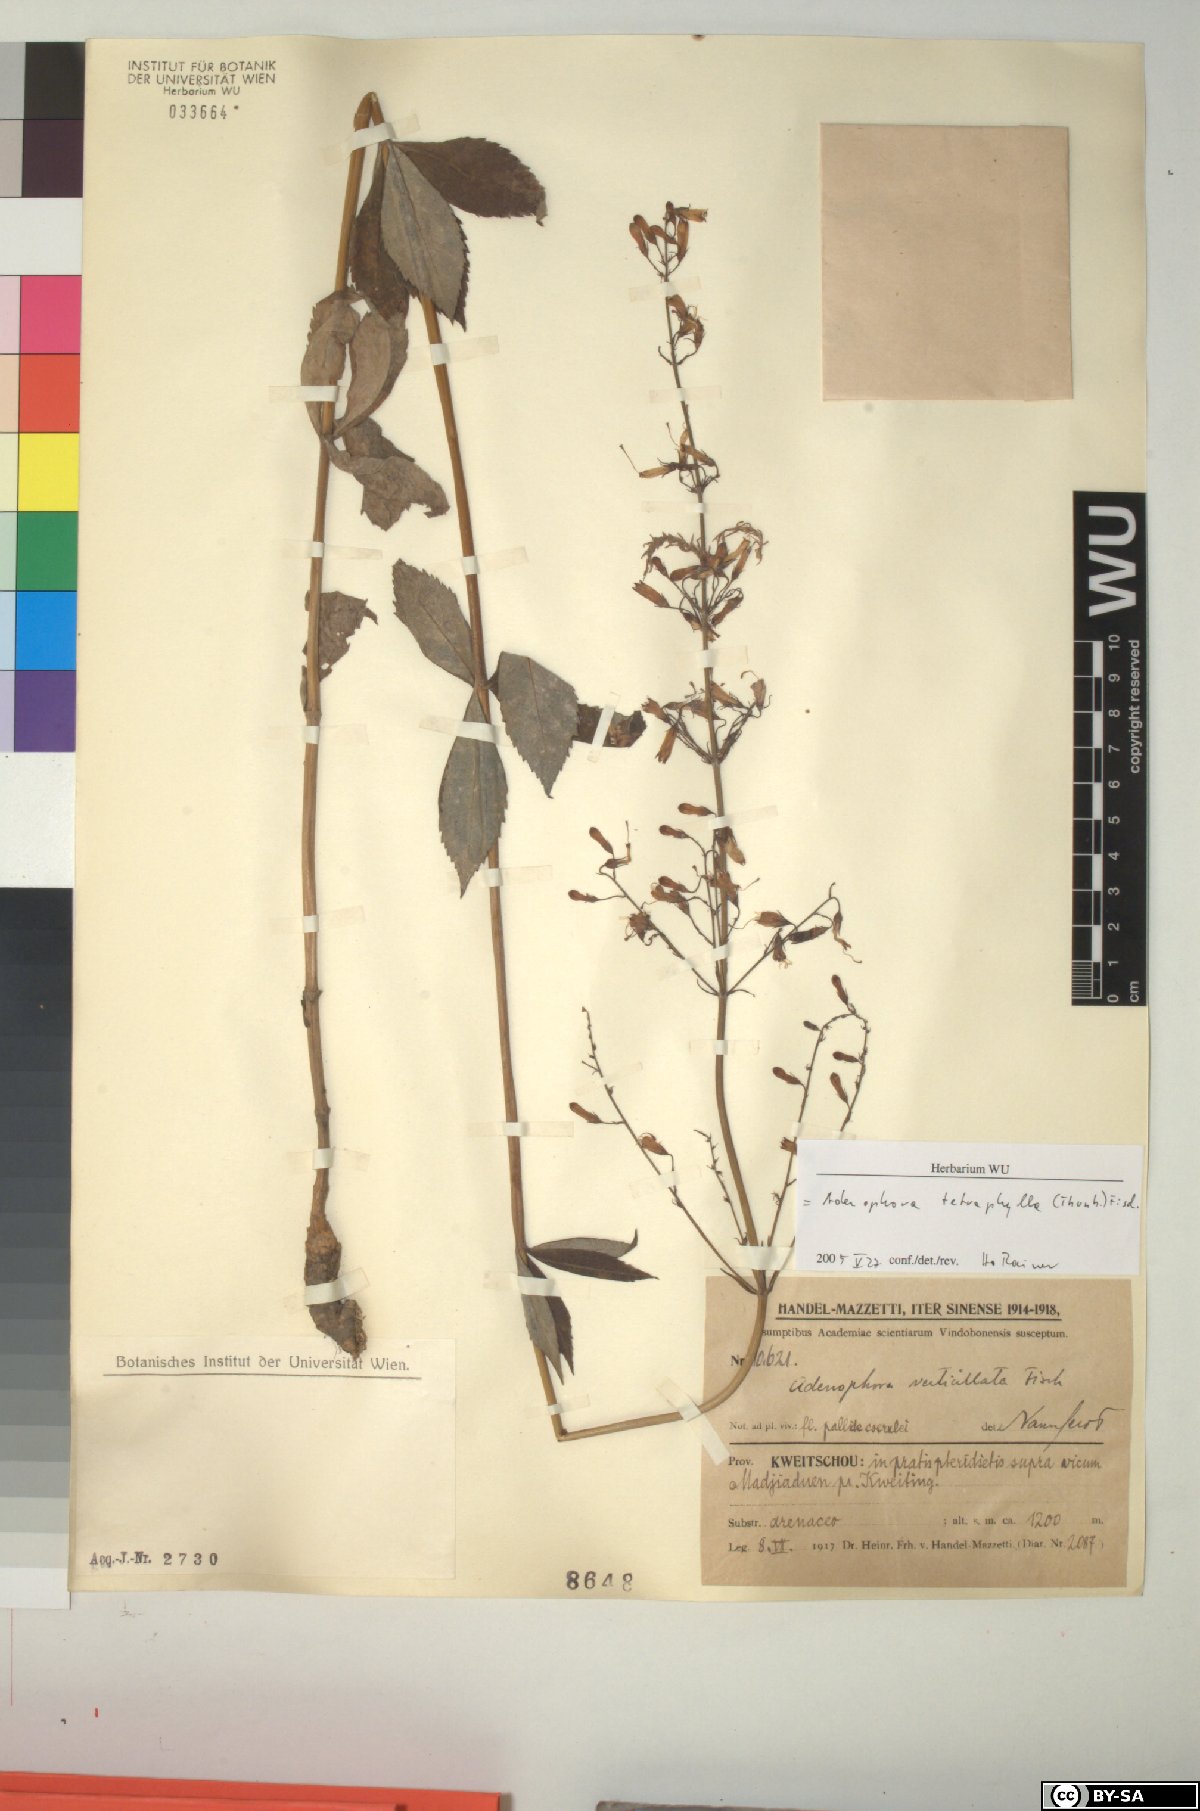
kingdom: Plantae
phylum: Tracheophyta
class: Magnoliopsida
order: Asterales
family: Campanulaceae
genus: Adenophora
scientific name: Adenophora triphylla
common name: Giant-bellflower
